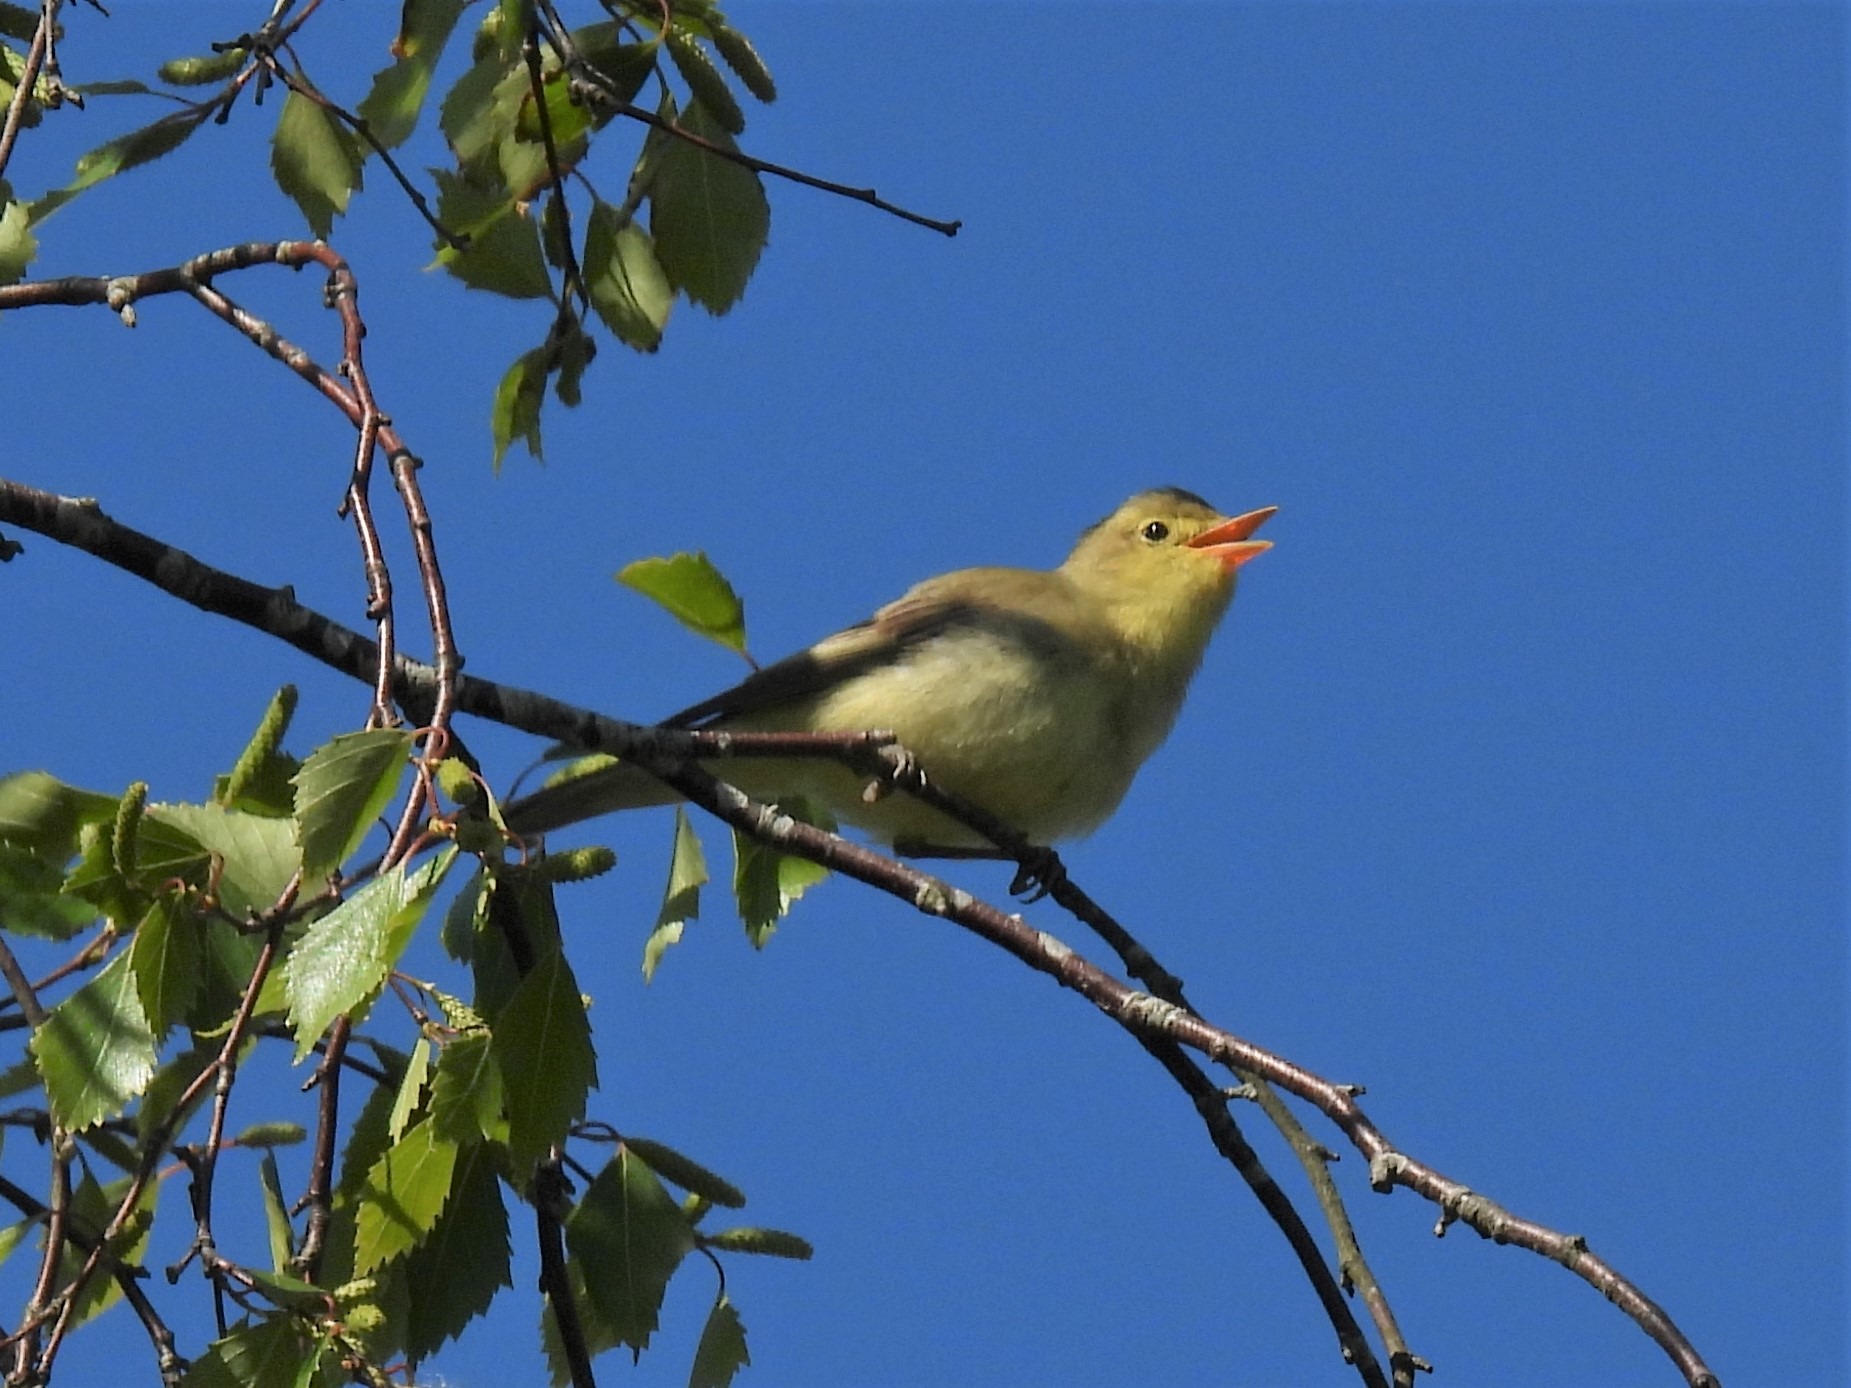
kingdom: Animalia
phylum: Chordata
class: Aves
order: Passeriformes
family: Acrocephalidae
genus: Hippolais
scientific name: Hippolais icterina
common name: Gulbug
